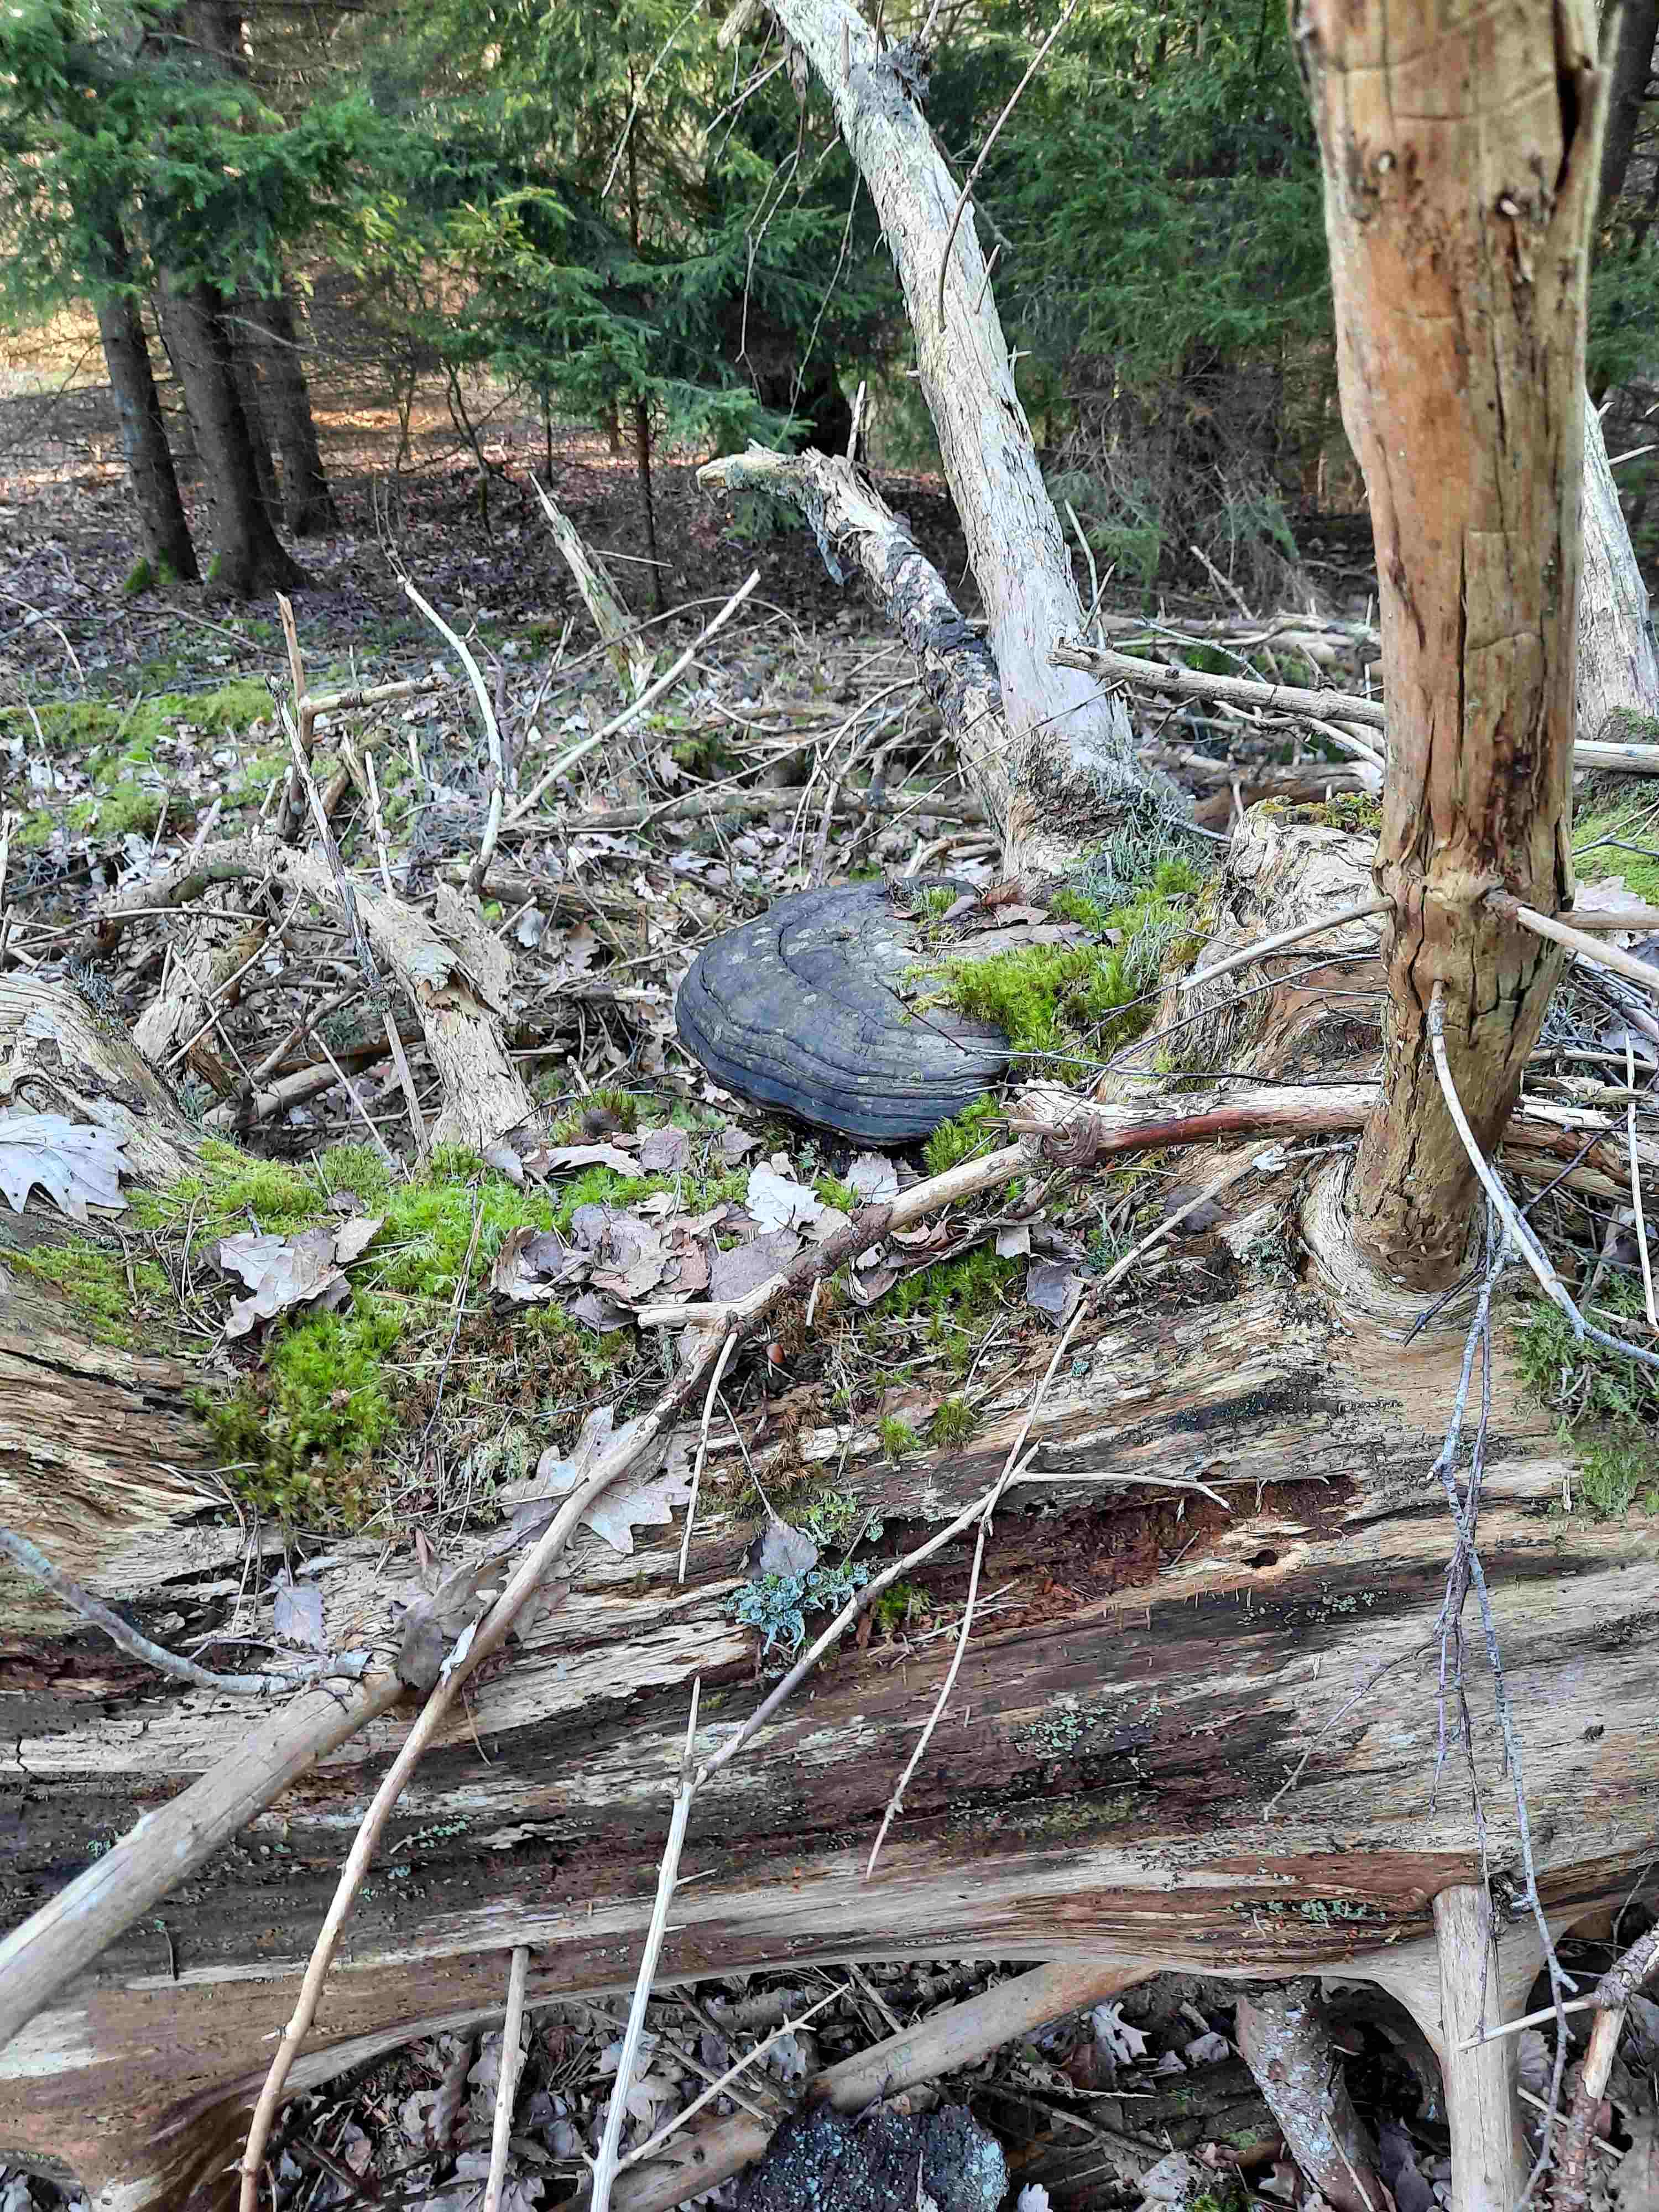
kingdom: Fungi
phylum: Basidiomycota
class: Agaricomycetes
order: Polyporales
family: Fomitopsidaceae
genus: Fomitopsis
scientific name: Fomitopsis pinicola
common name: randbæltet hovporesvamp
